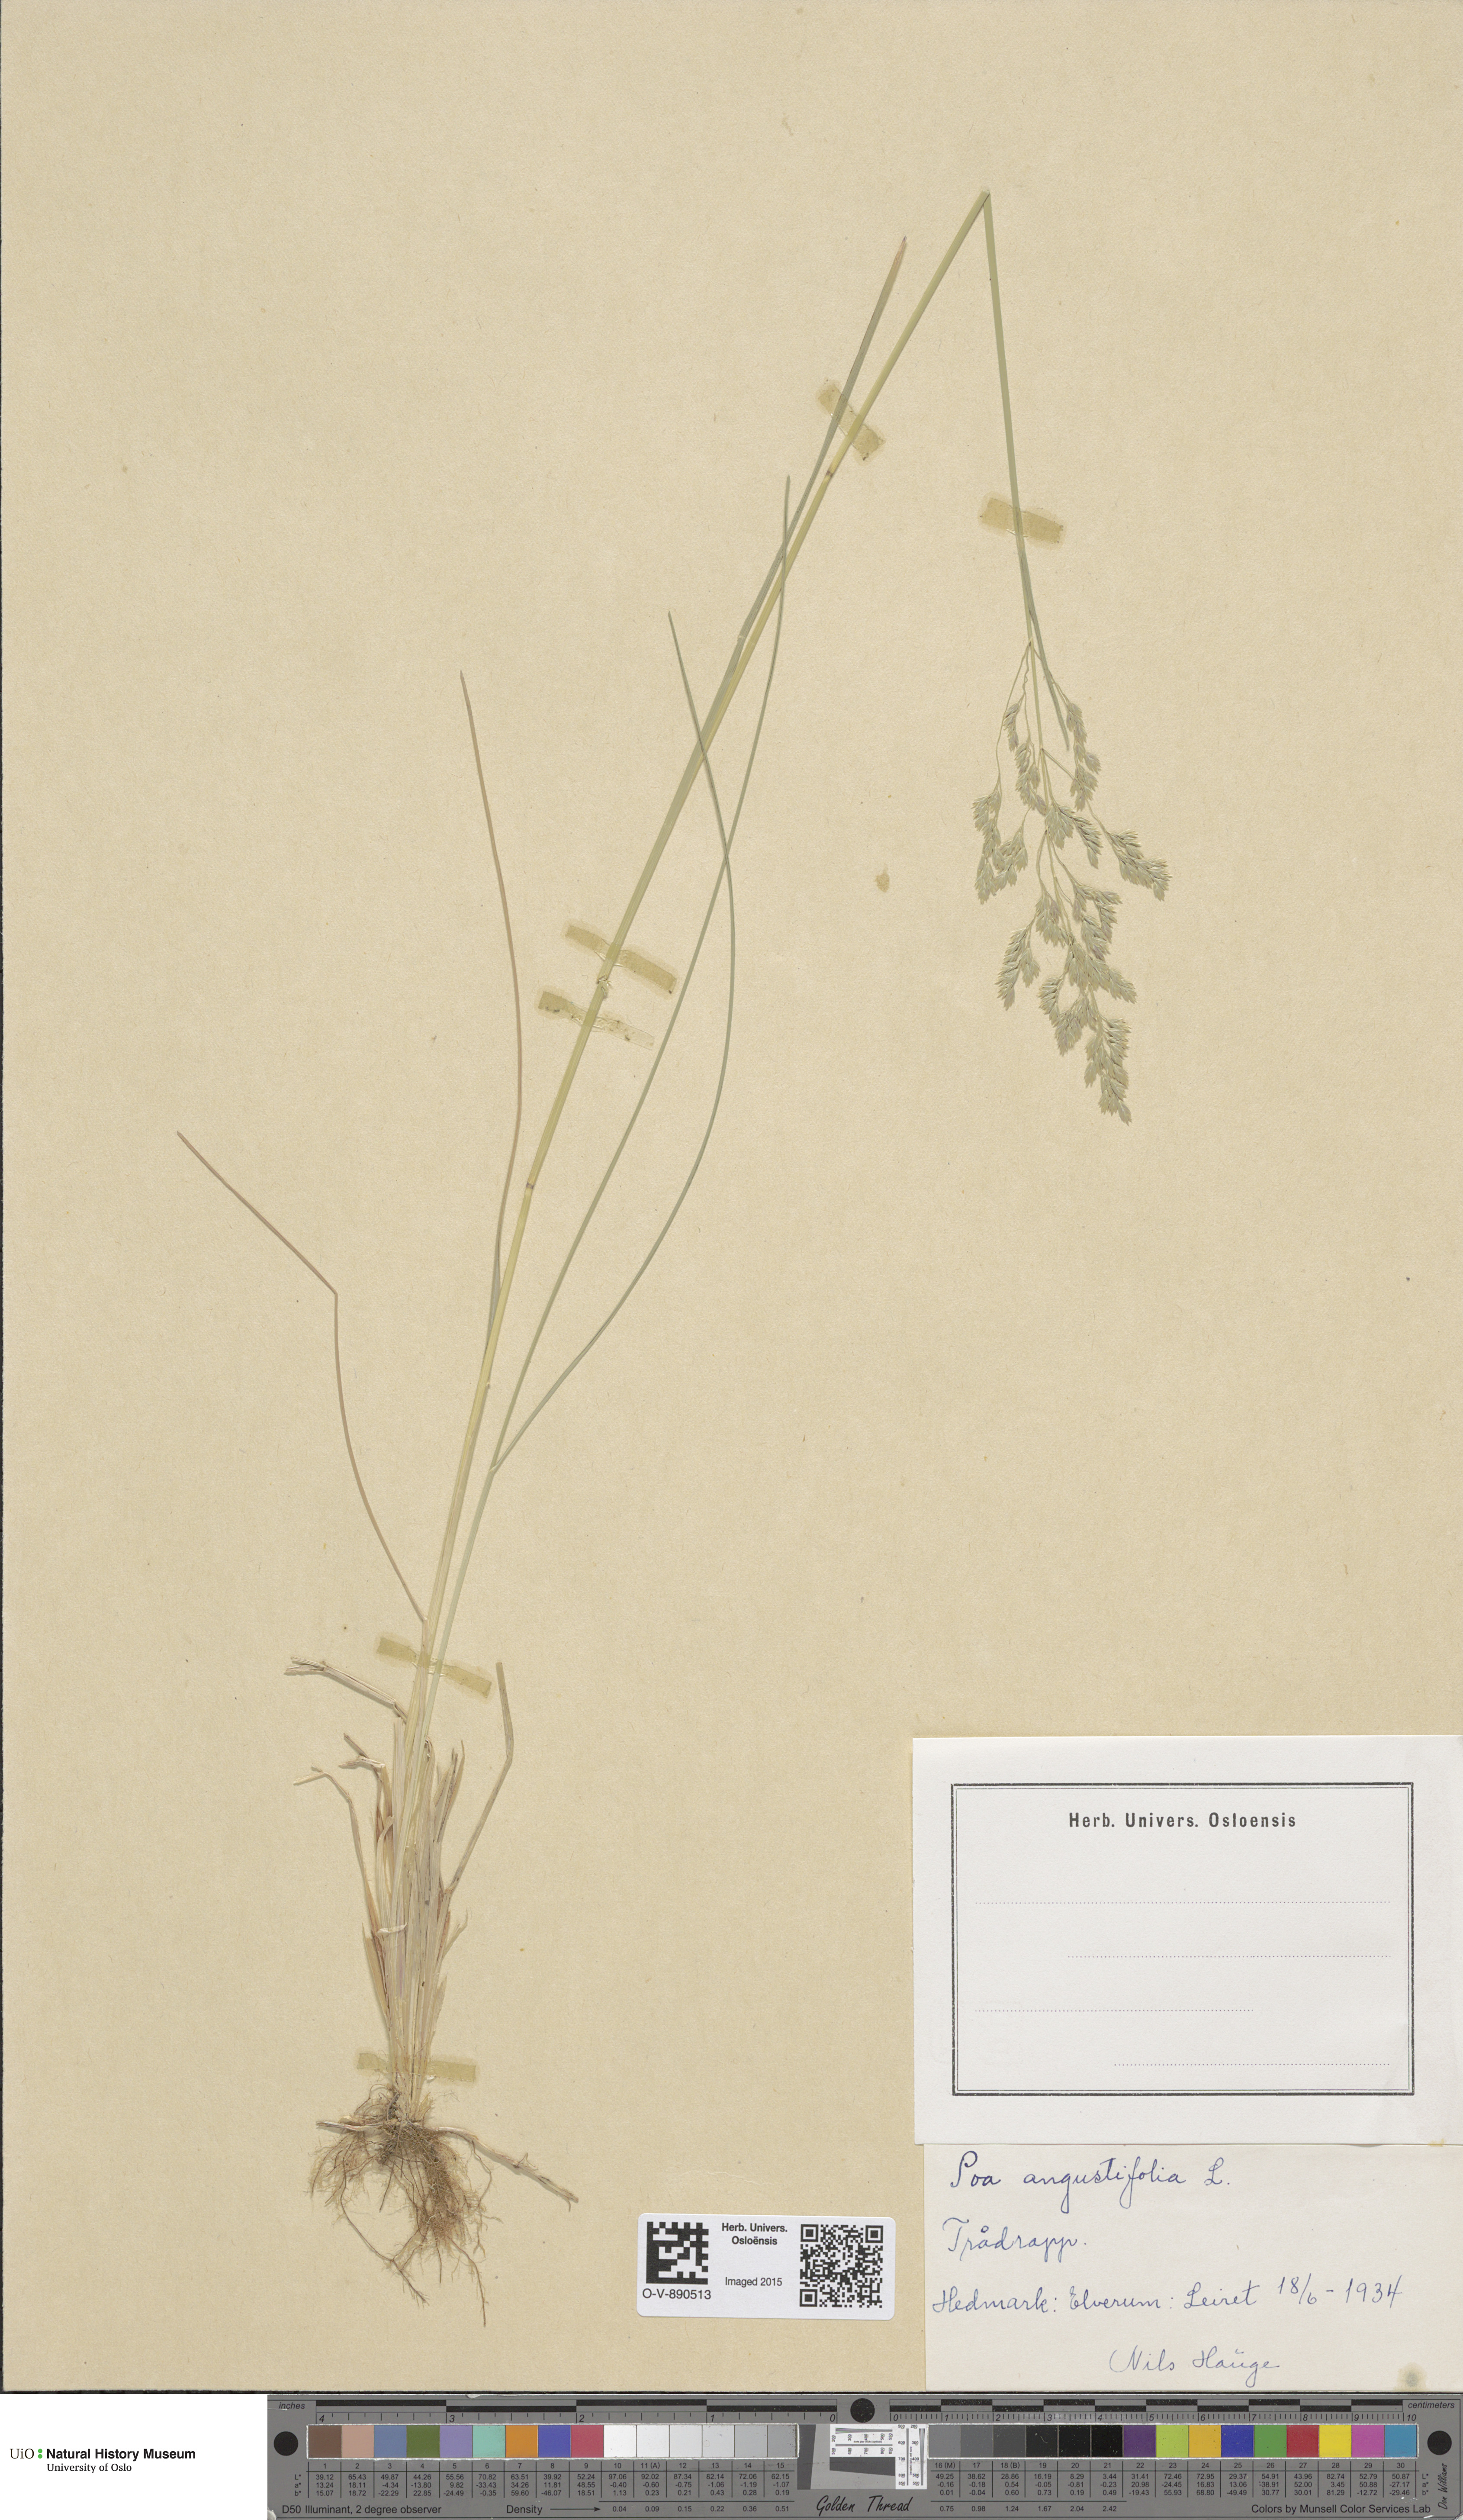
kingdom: Plantae
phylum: Tracheophyta
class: Liliopsida
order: Poales
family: Poaceae
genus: Poa
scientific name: Poa angustifolia
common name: Narrow-leaved meadow-grass
